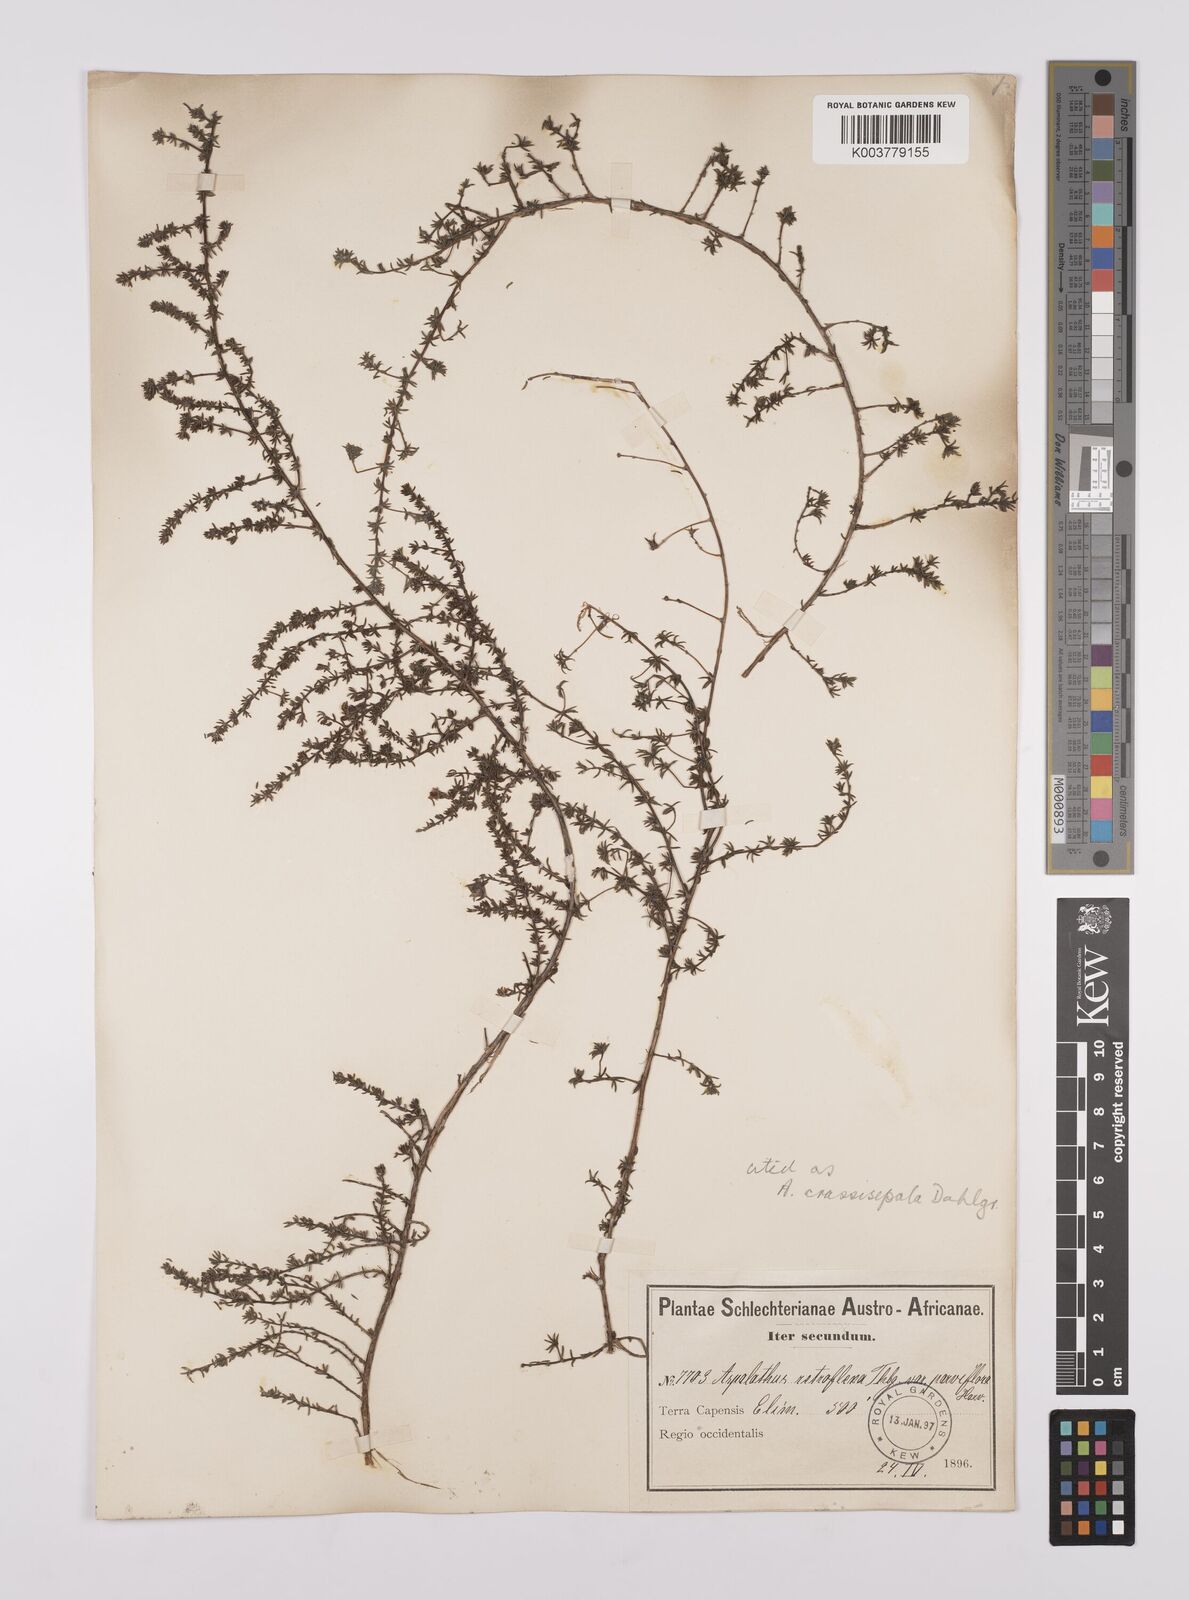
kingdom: Plantae
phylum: Tracheophyta
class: Magnoliopsida
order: Fabales
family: Fabaceae
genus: Aspalathus
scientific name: Aspalathus crassisepala
